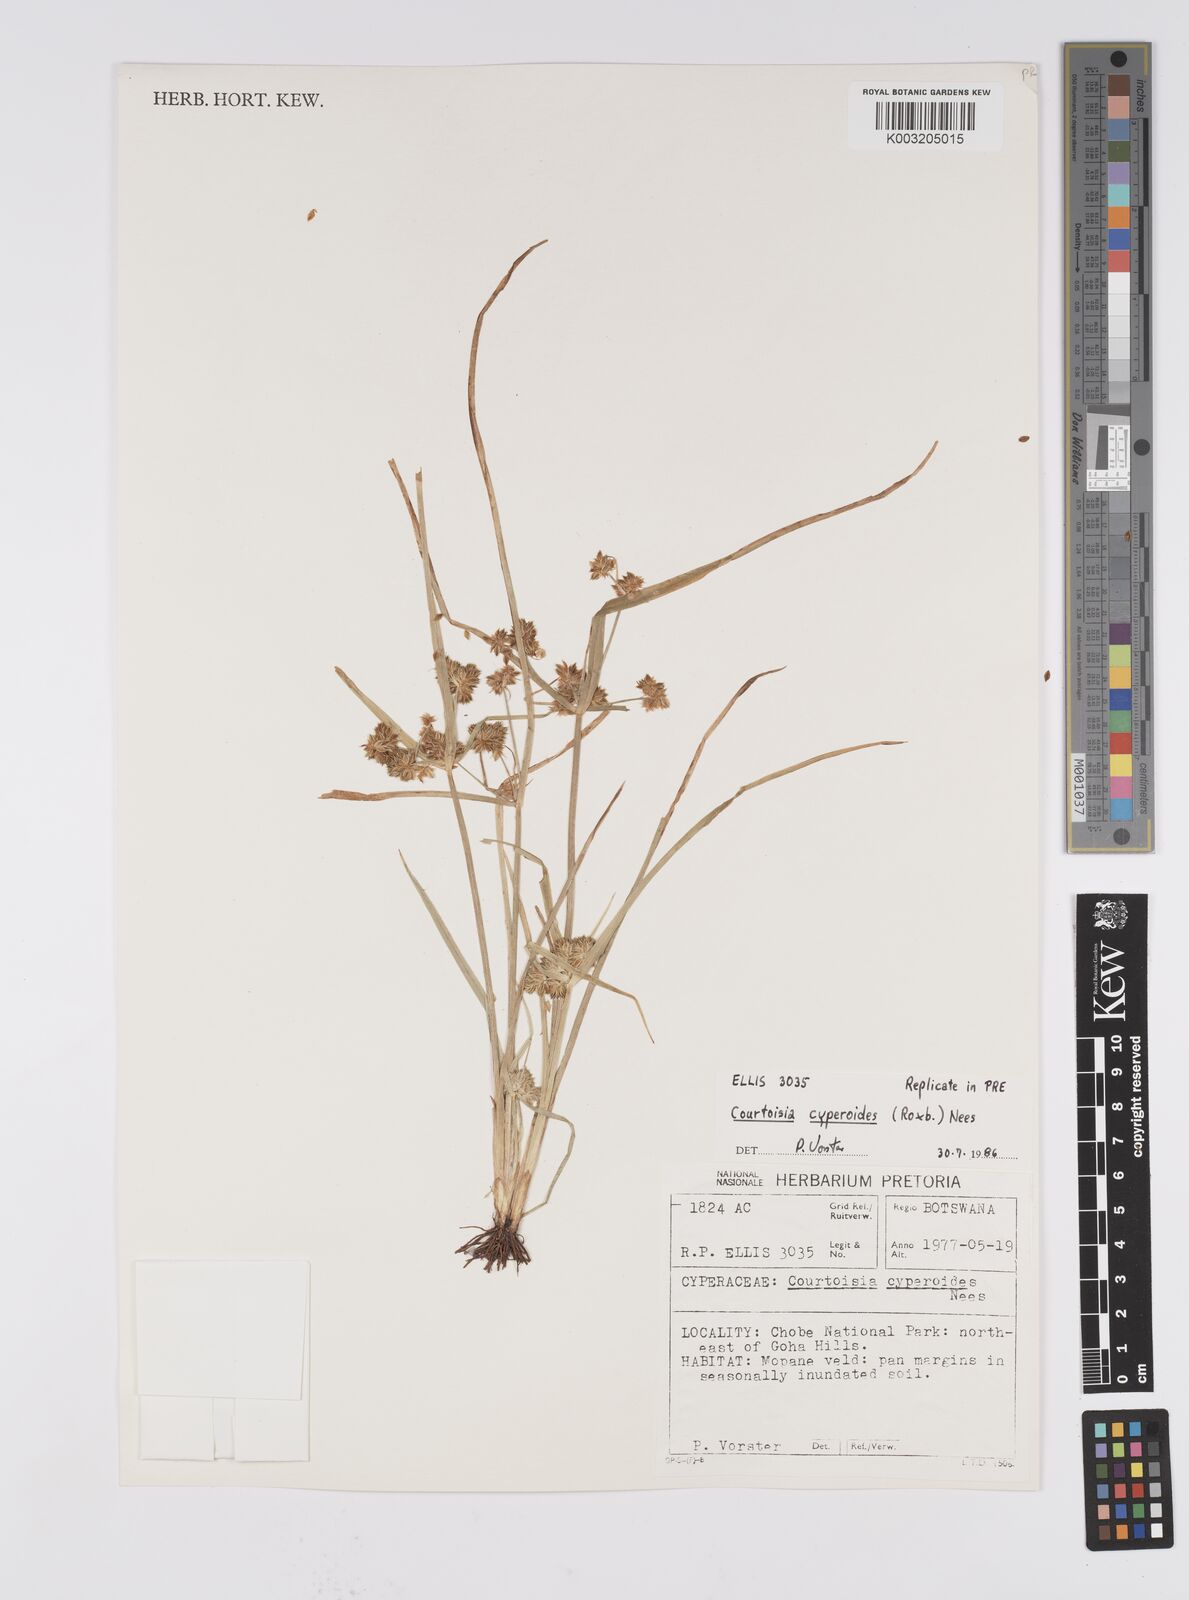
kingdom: Plantae
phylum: Tracheophyta
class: Liliopsida
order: Poales
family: Cyperaceae
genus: Cyperus
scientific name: Cyperus cyperoides
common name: Pacific island flat sedge
